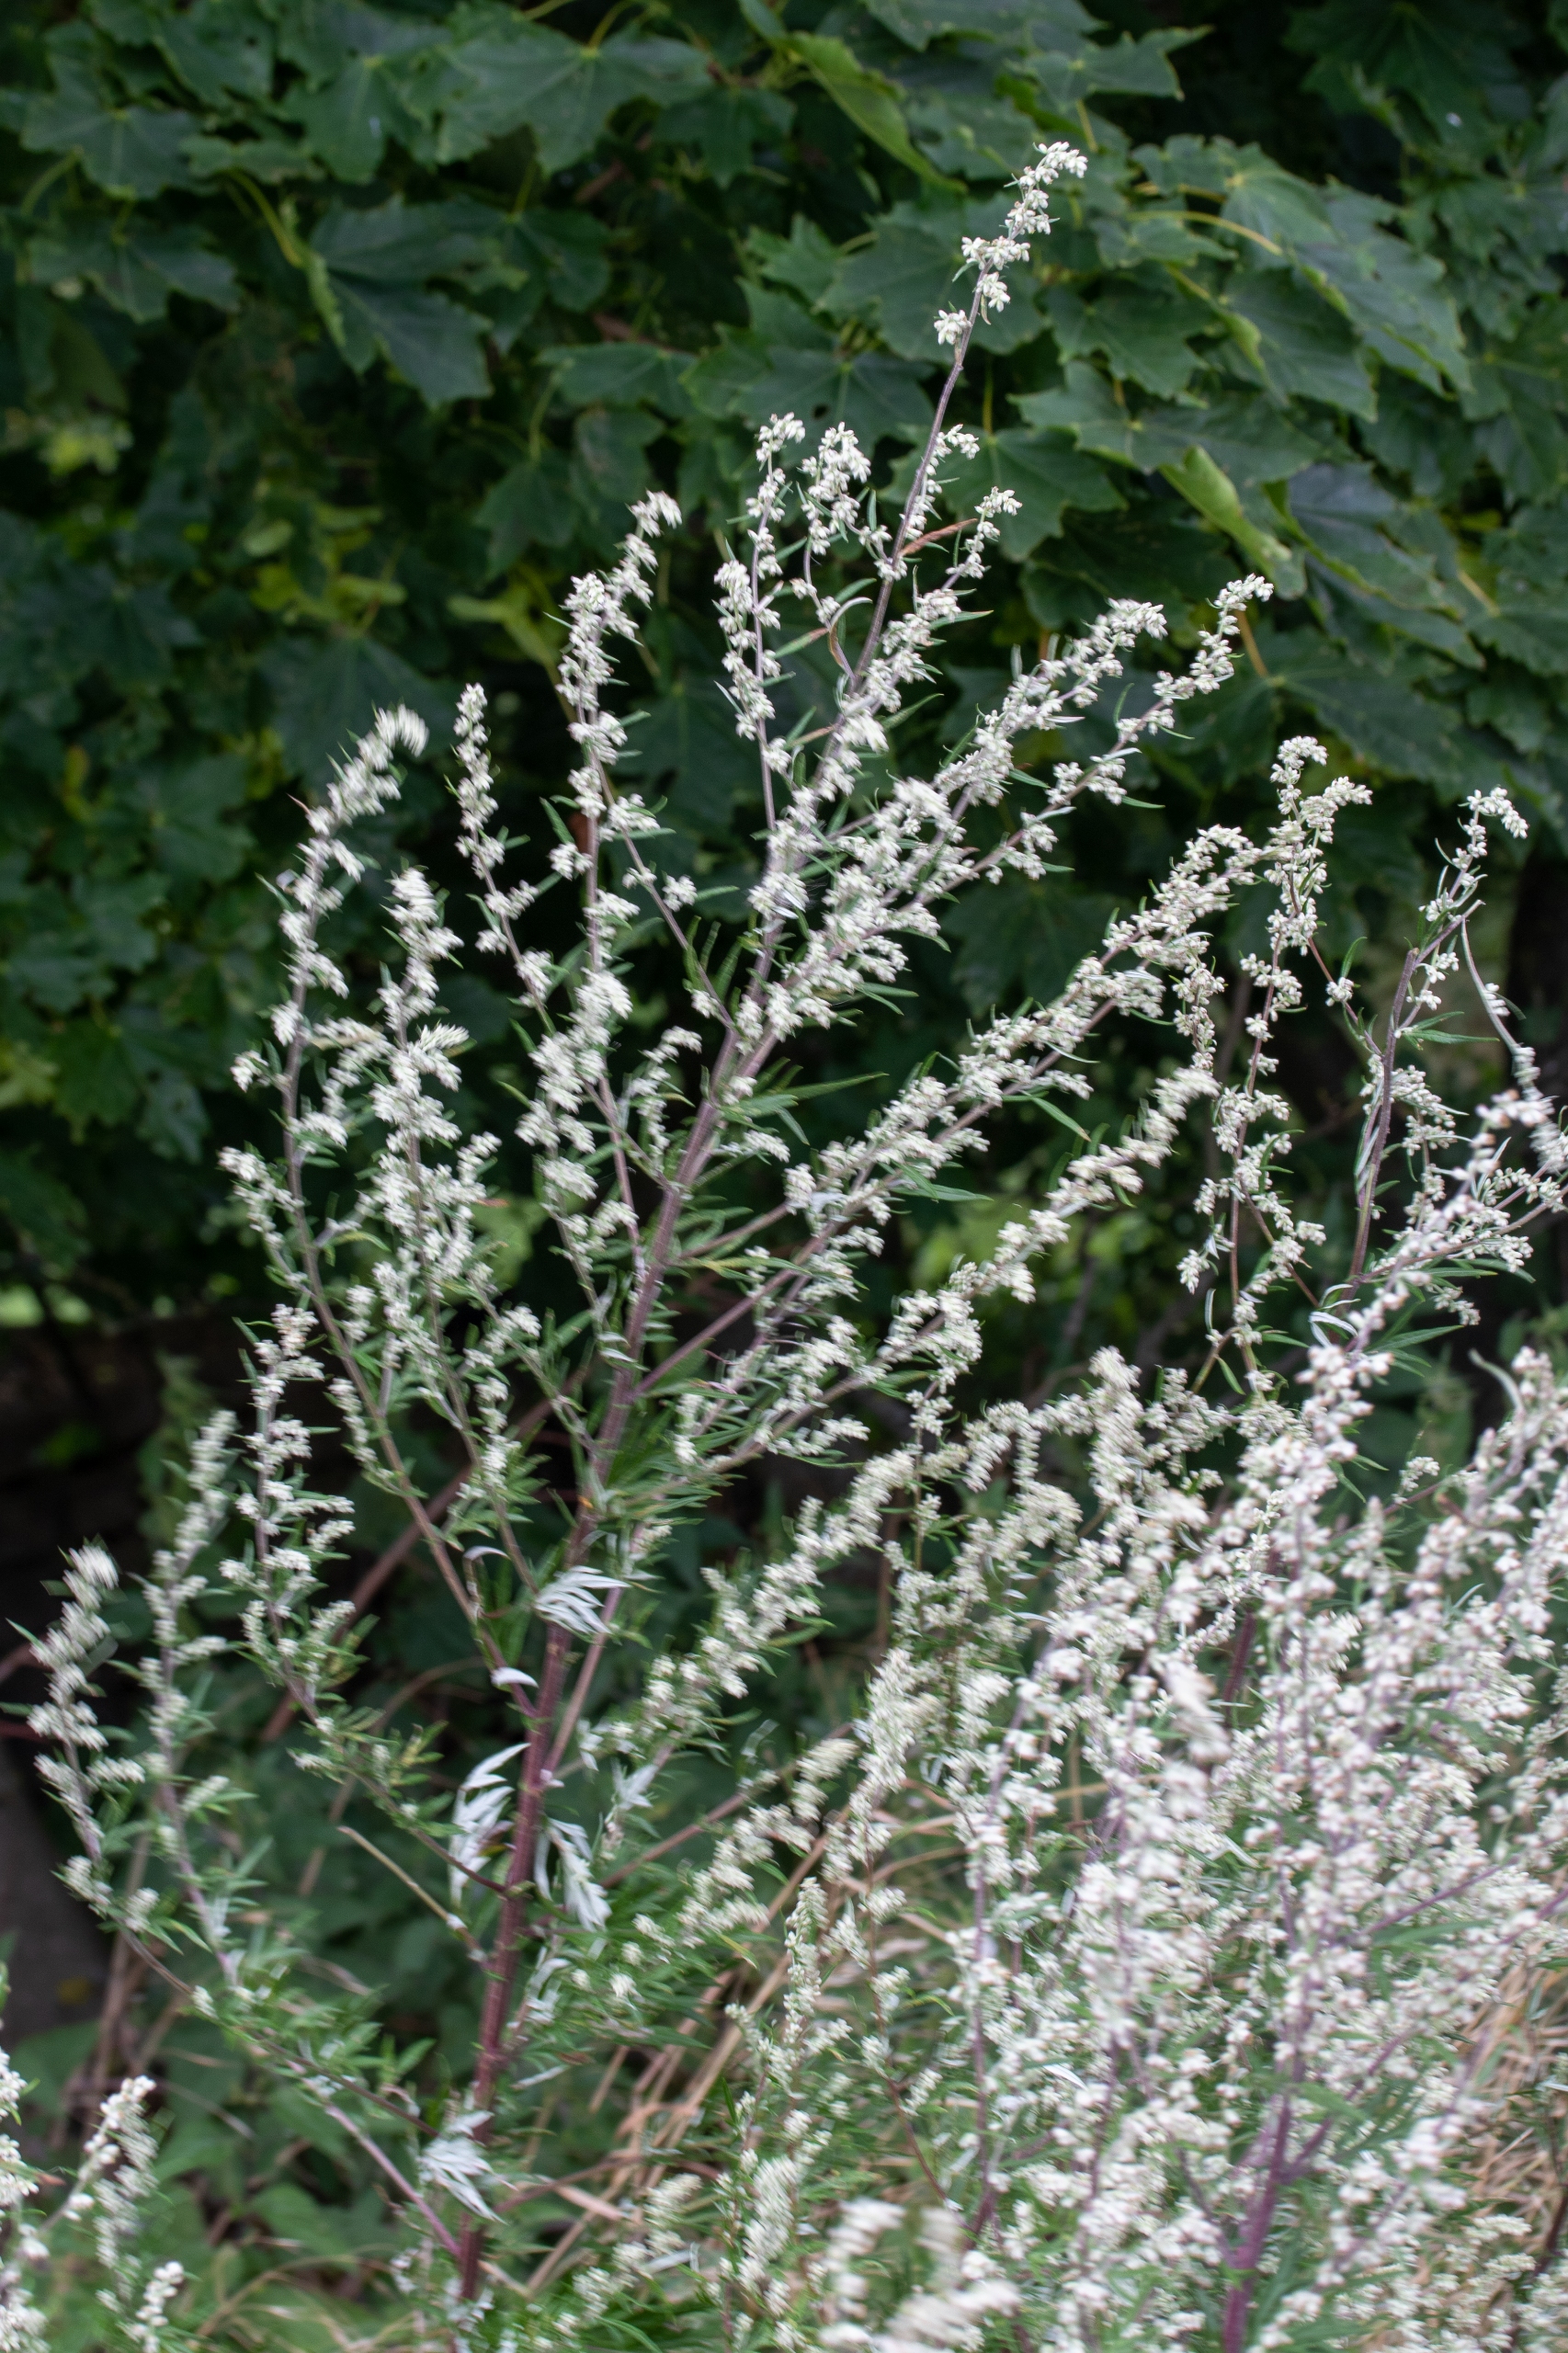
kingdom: Plantae
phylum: Tracheophyta
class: Magnoliopsida
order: Asterales
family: Asteraceae
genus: Artemisia
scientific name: Artemisia vulgaris
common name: Grå-bynke
